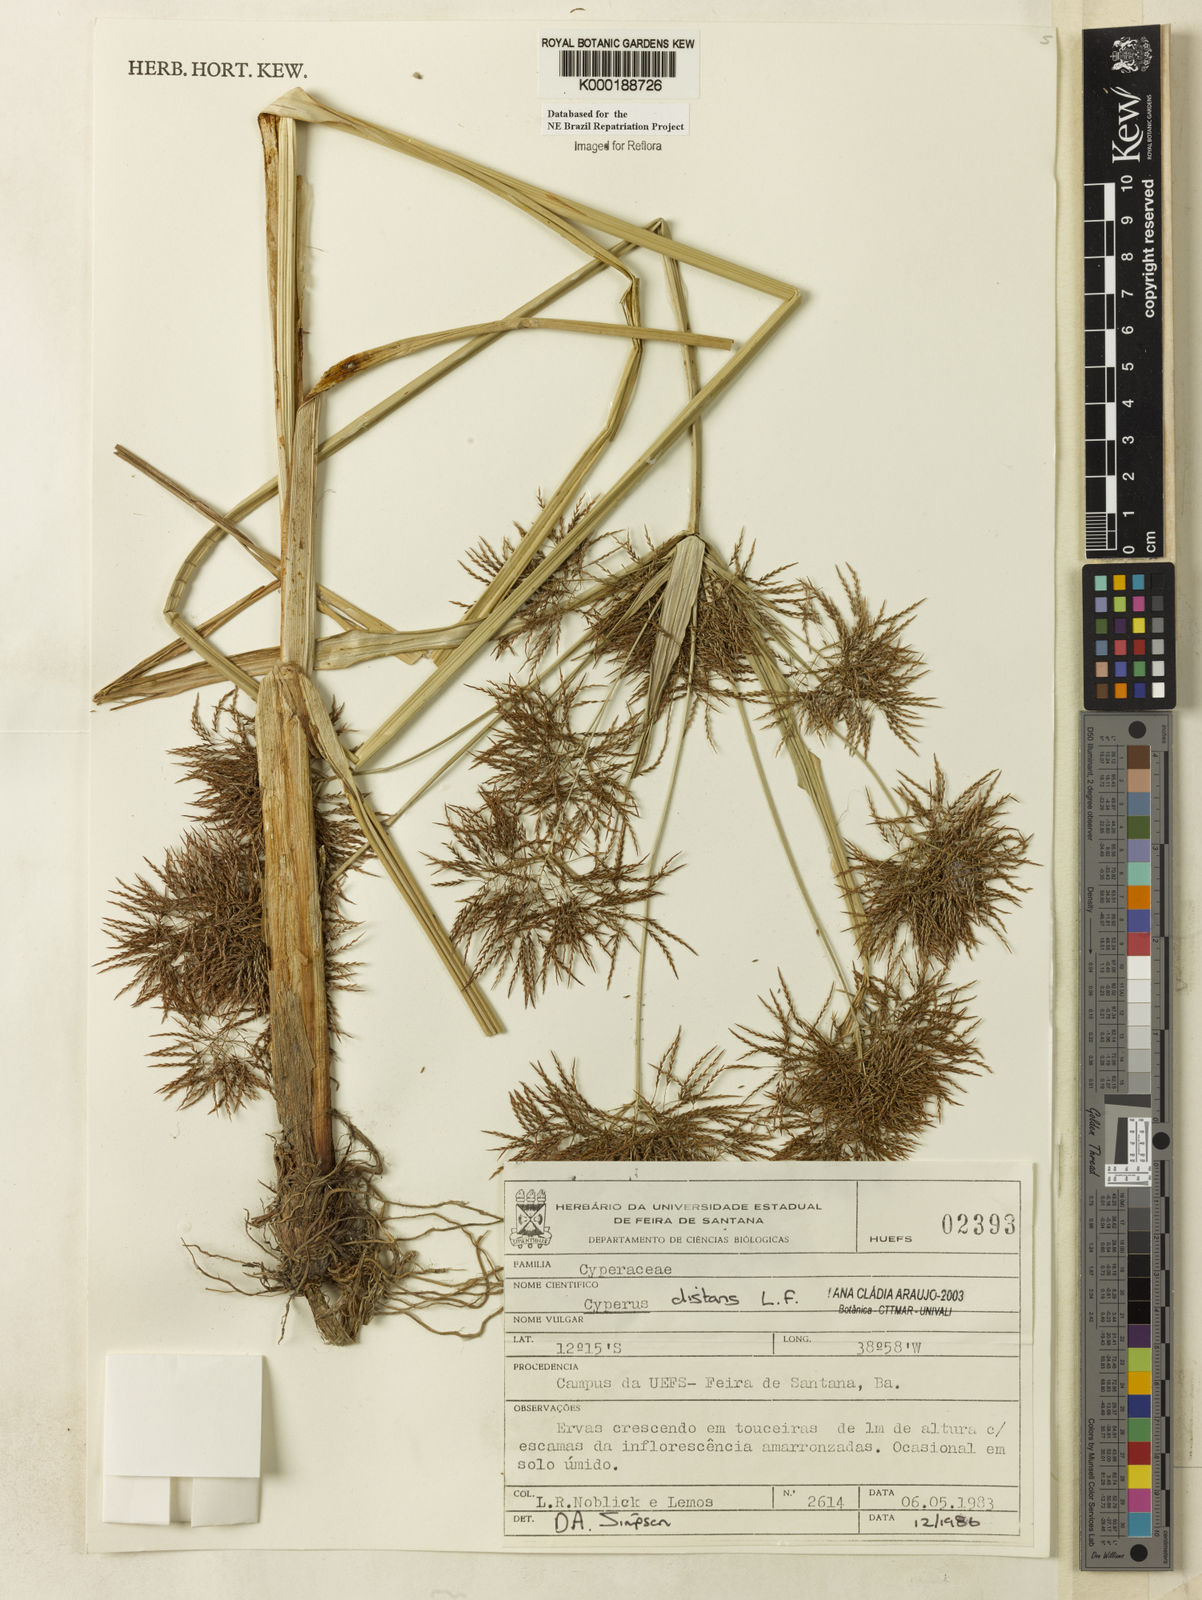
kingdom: Plantae
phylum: Tracheophyta
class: Liliopsida
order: Poales
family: Cyperaceae
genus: Cyperus
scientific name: Cyperus distans
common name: Slender cyperus
